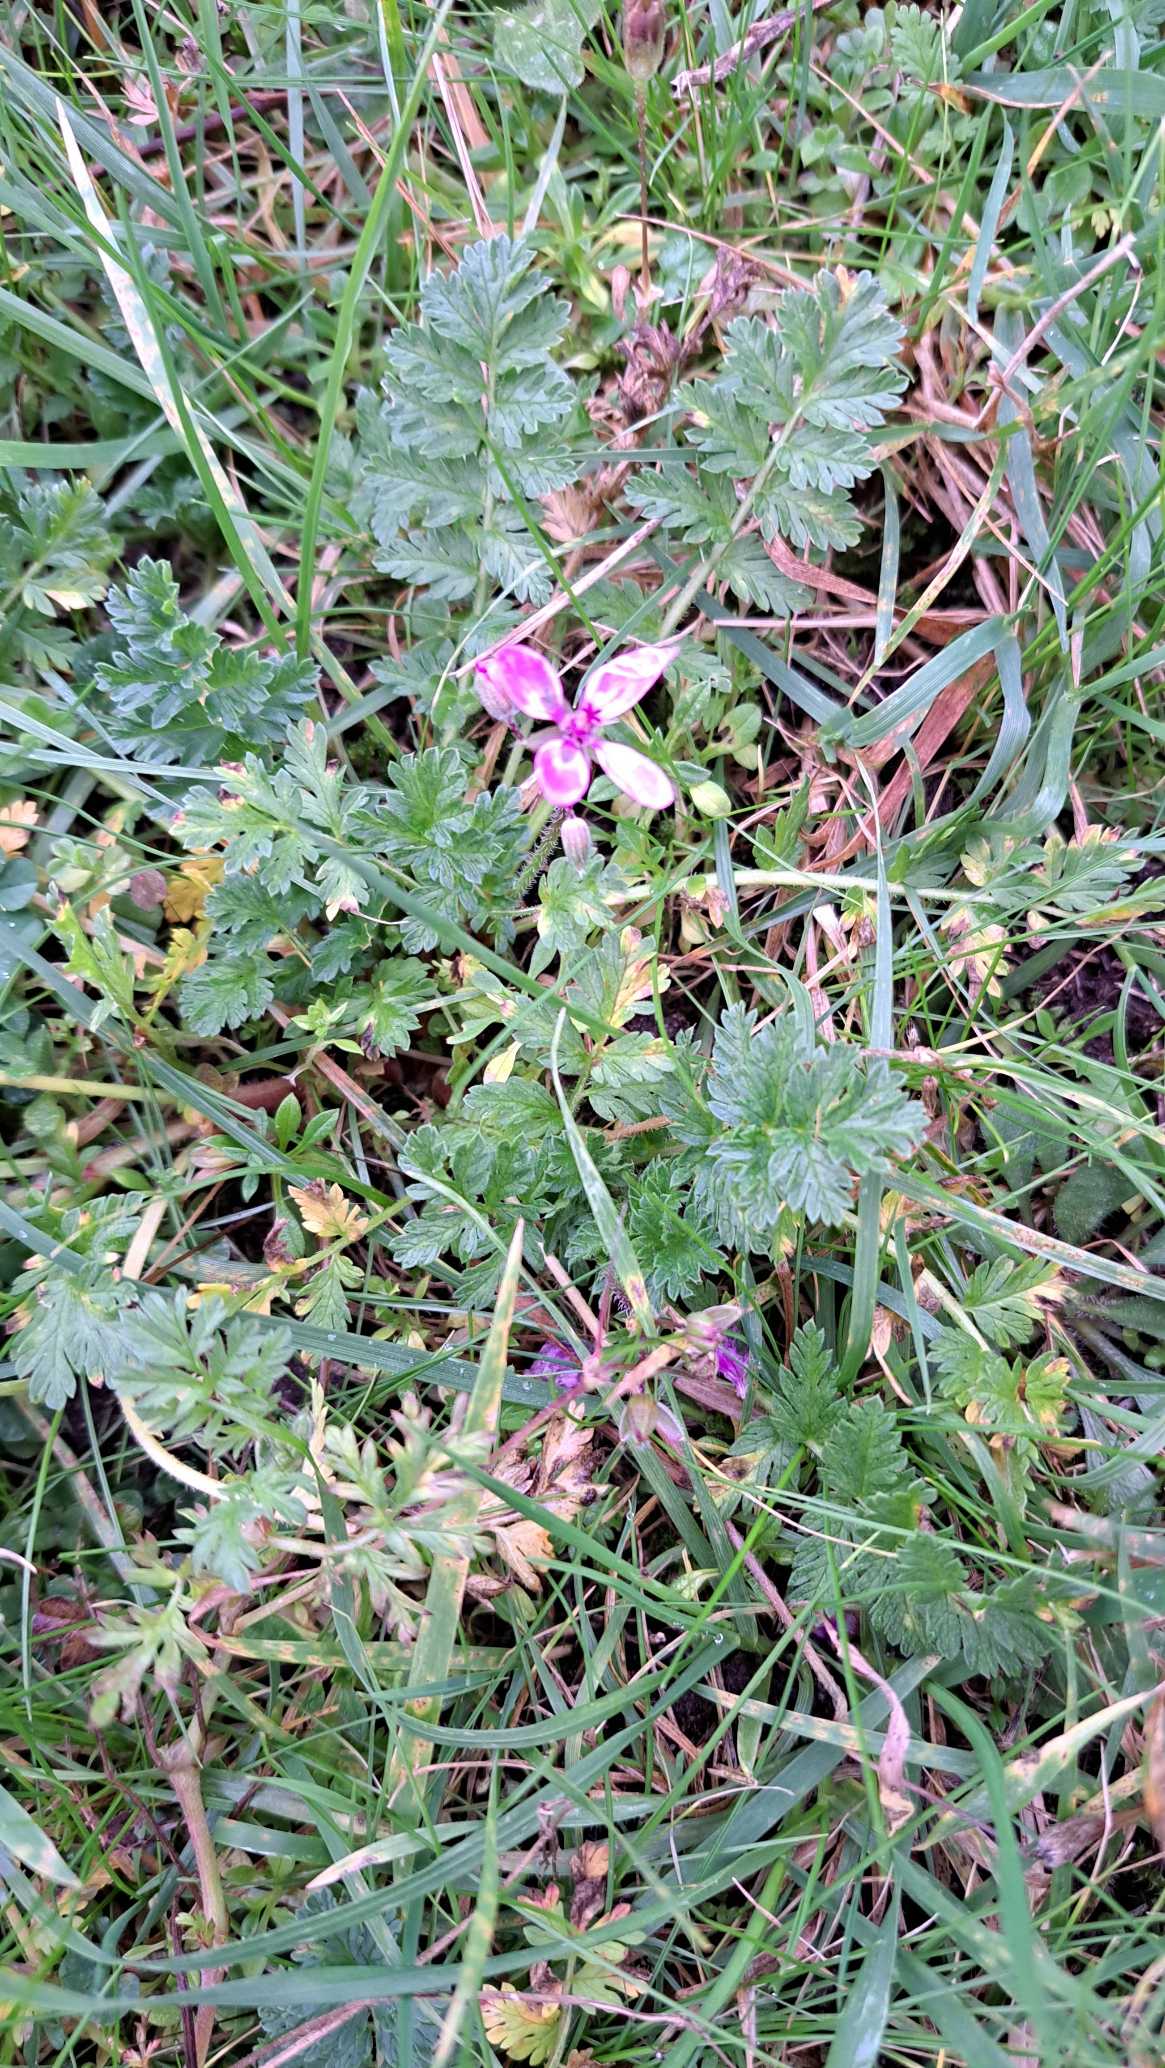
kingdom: Plantae
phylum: Tracheophyta
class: Magnoliopsida
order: Geraniales
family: Geraniaceae
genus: Erodium
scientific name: Erodium cicutarium
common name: Hejrenæb
